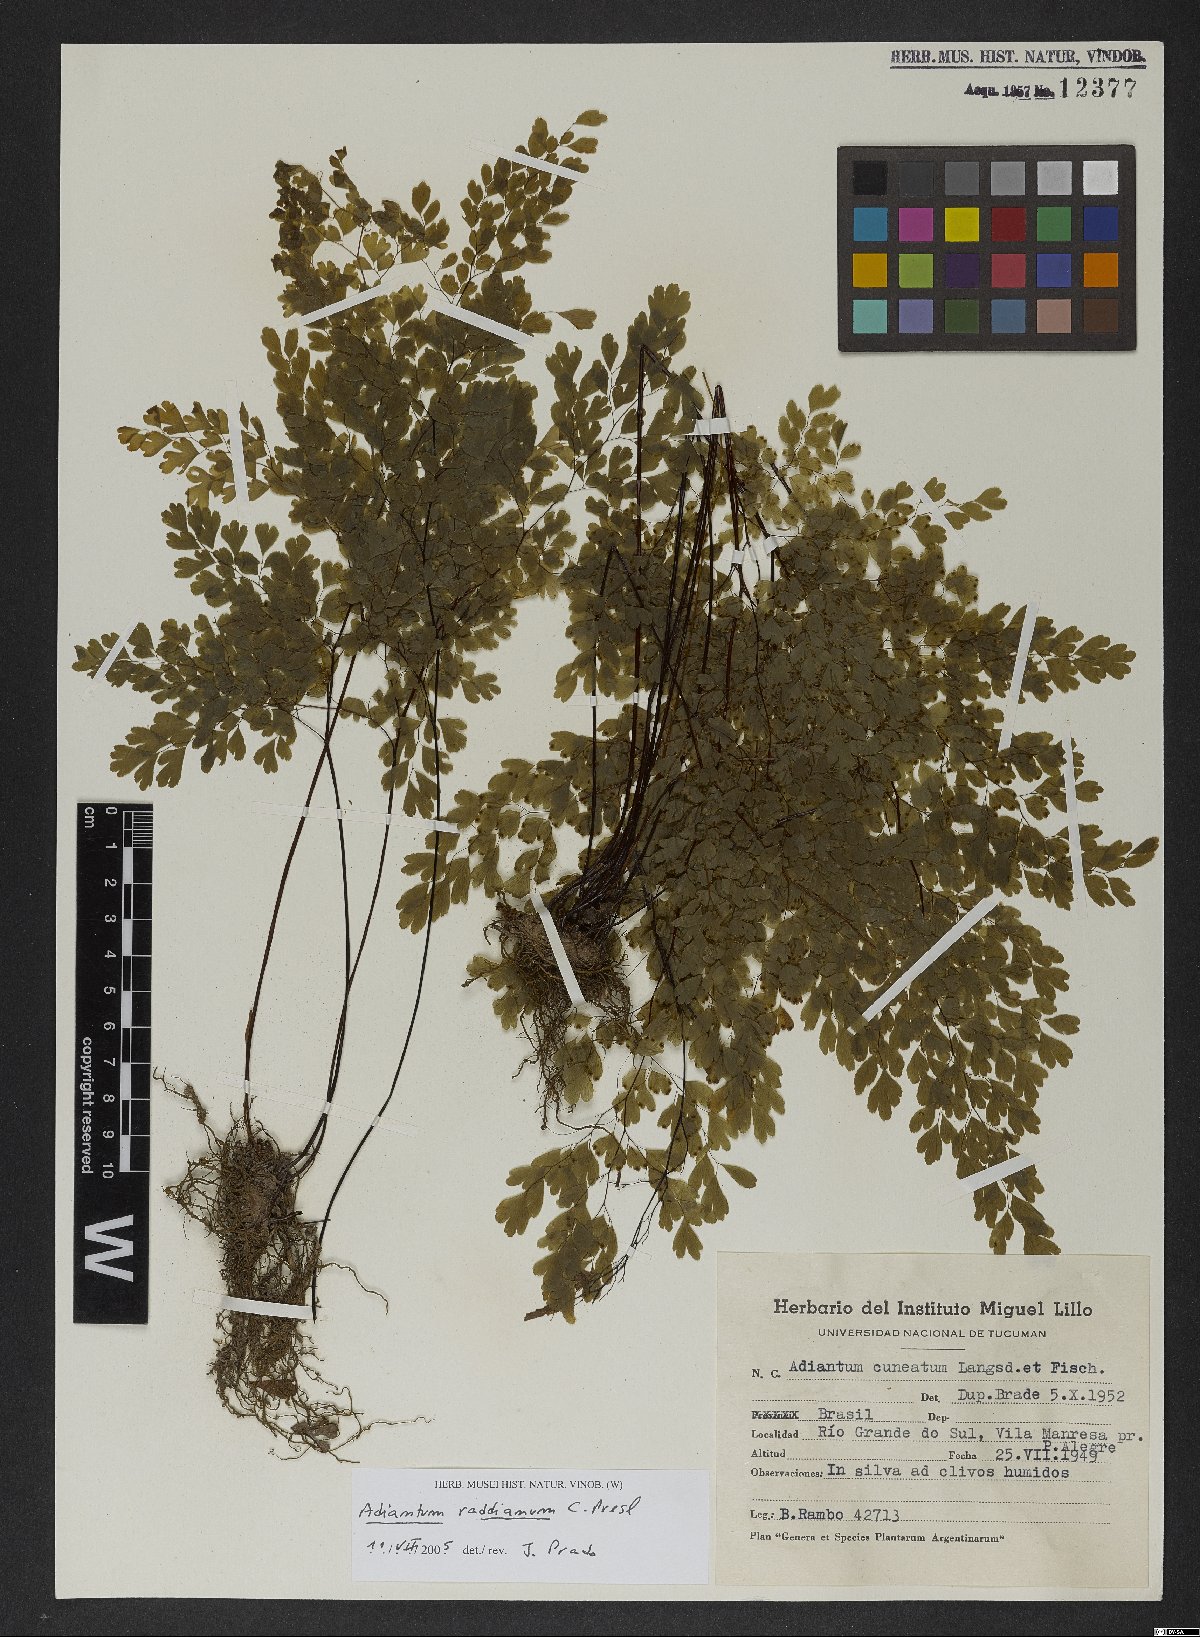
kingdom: Plantae
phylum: Tracheophyta
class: Polypodiopsida
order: Polypodiales
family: Pteridaceae
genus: Adiantum
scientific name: Adiantum raddianum
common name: Delta maidenhair fern
